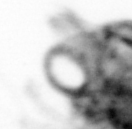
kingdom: Animalia
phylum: Arthropoda
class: Copepoda
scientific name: Copepoda
